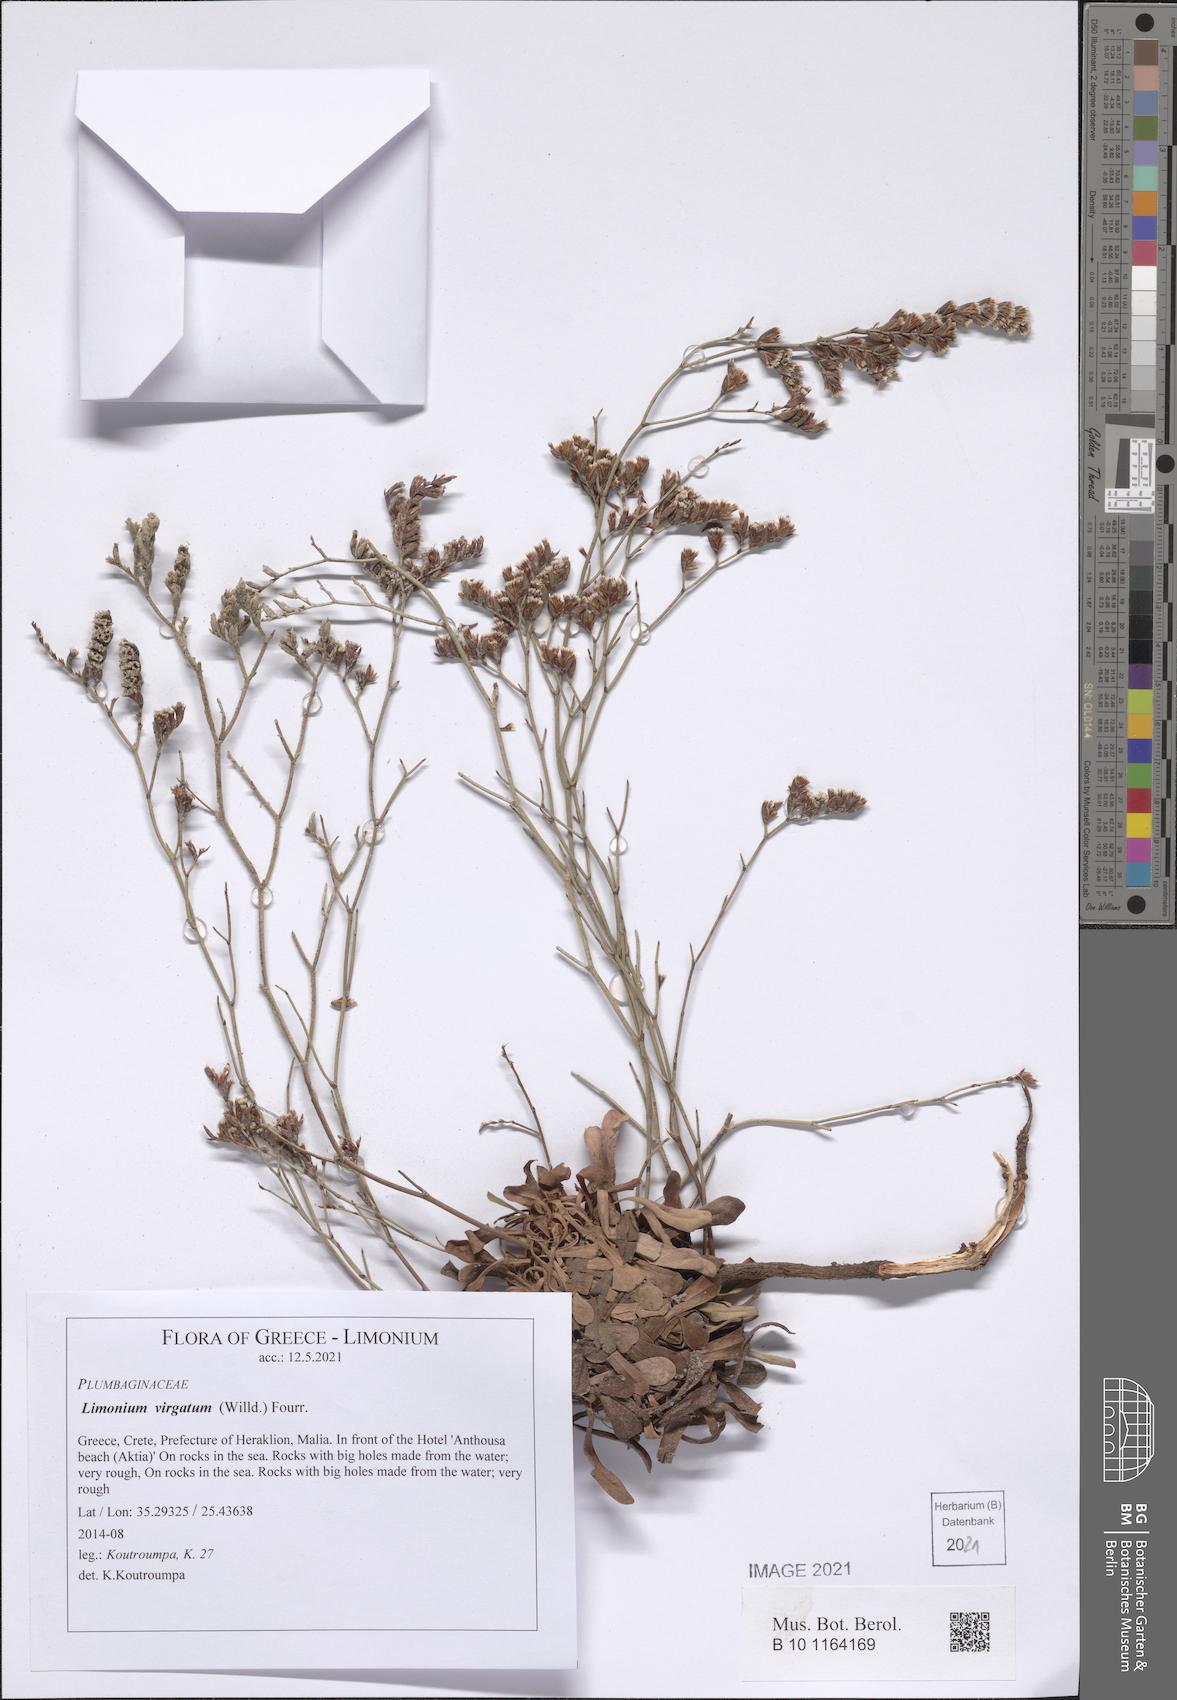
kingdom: Plantae
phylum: Tracheophyta
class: Magnoliopsida
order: Caryophyllales
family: Plumbaginaceae
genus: Limonium
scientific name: Limonium virgatum
